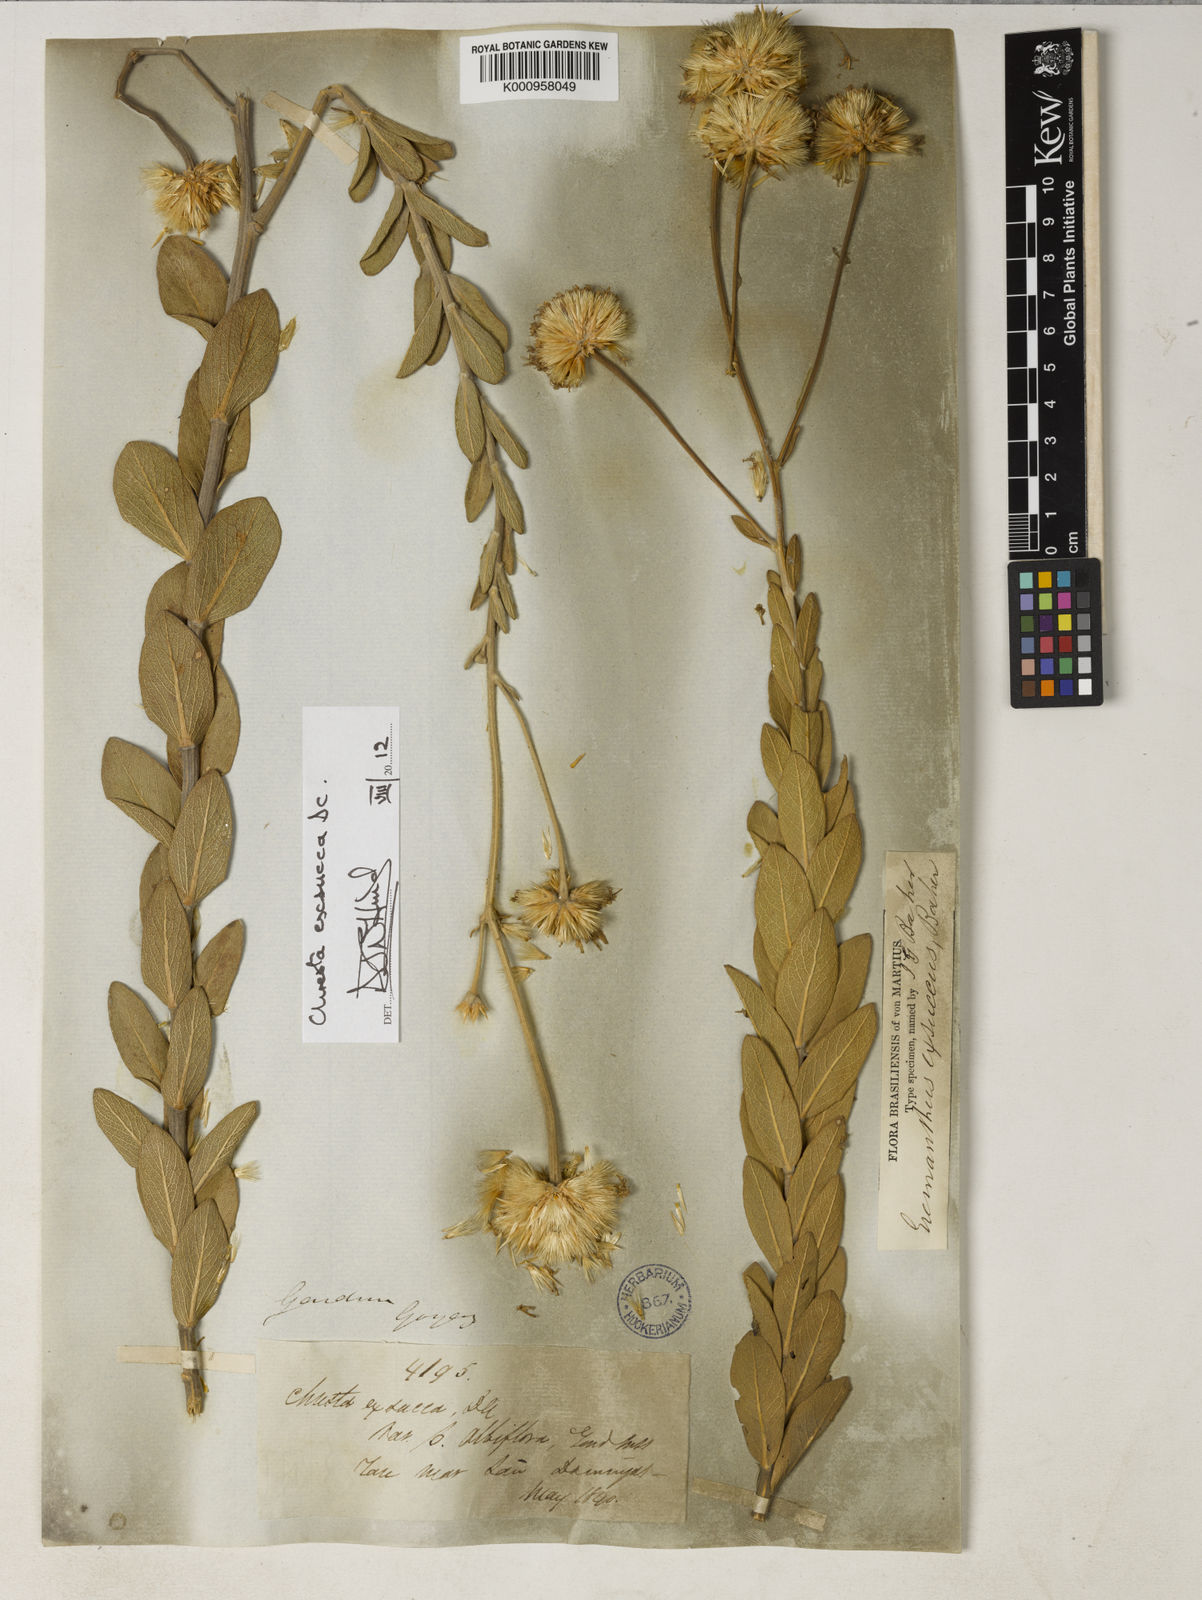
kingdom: Plantae
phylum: Tracheophyta
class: Magnoliopsida
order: Asterales
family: Asteraceae
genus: Chresta
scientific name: Chresta exsucca
